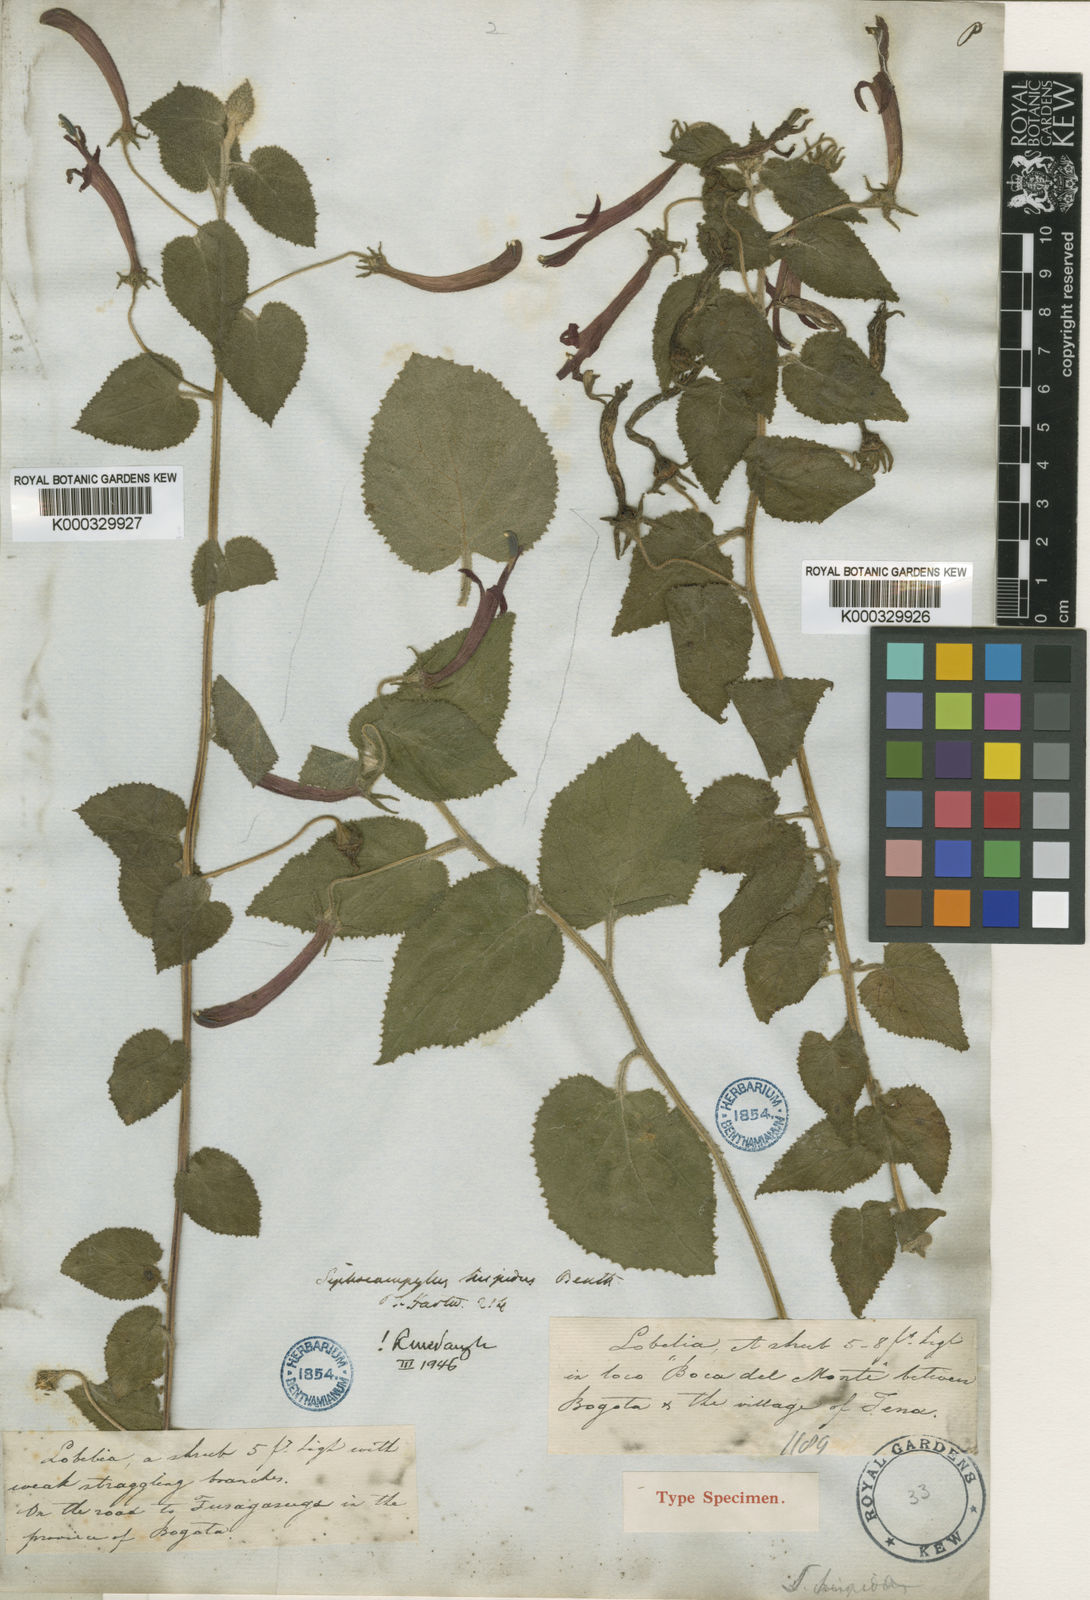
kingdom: Plantae
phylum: Tracheophyta
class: Magnoliopsida
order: Asterales
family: Campanulaceae
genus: Siphocampylus
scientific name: Siphocampylus hispidus
